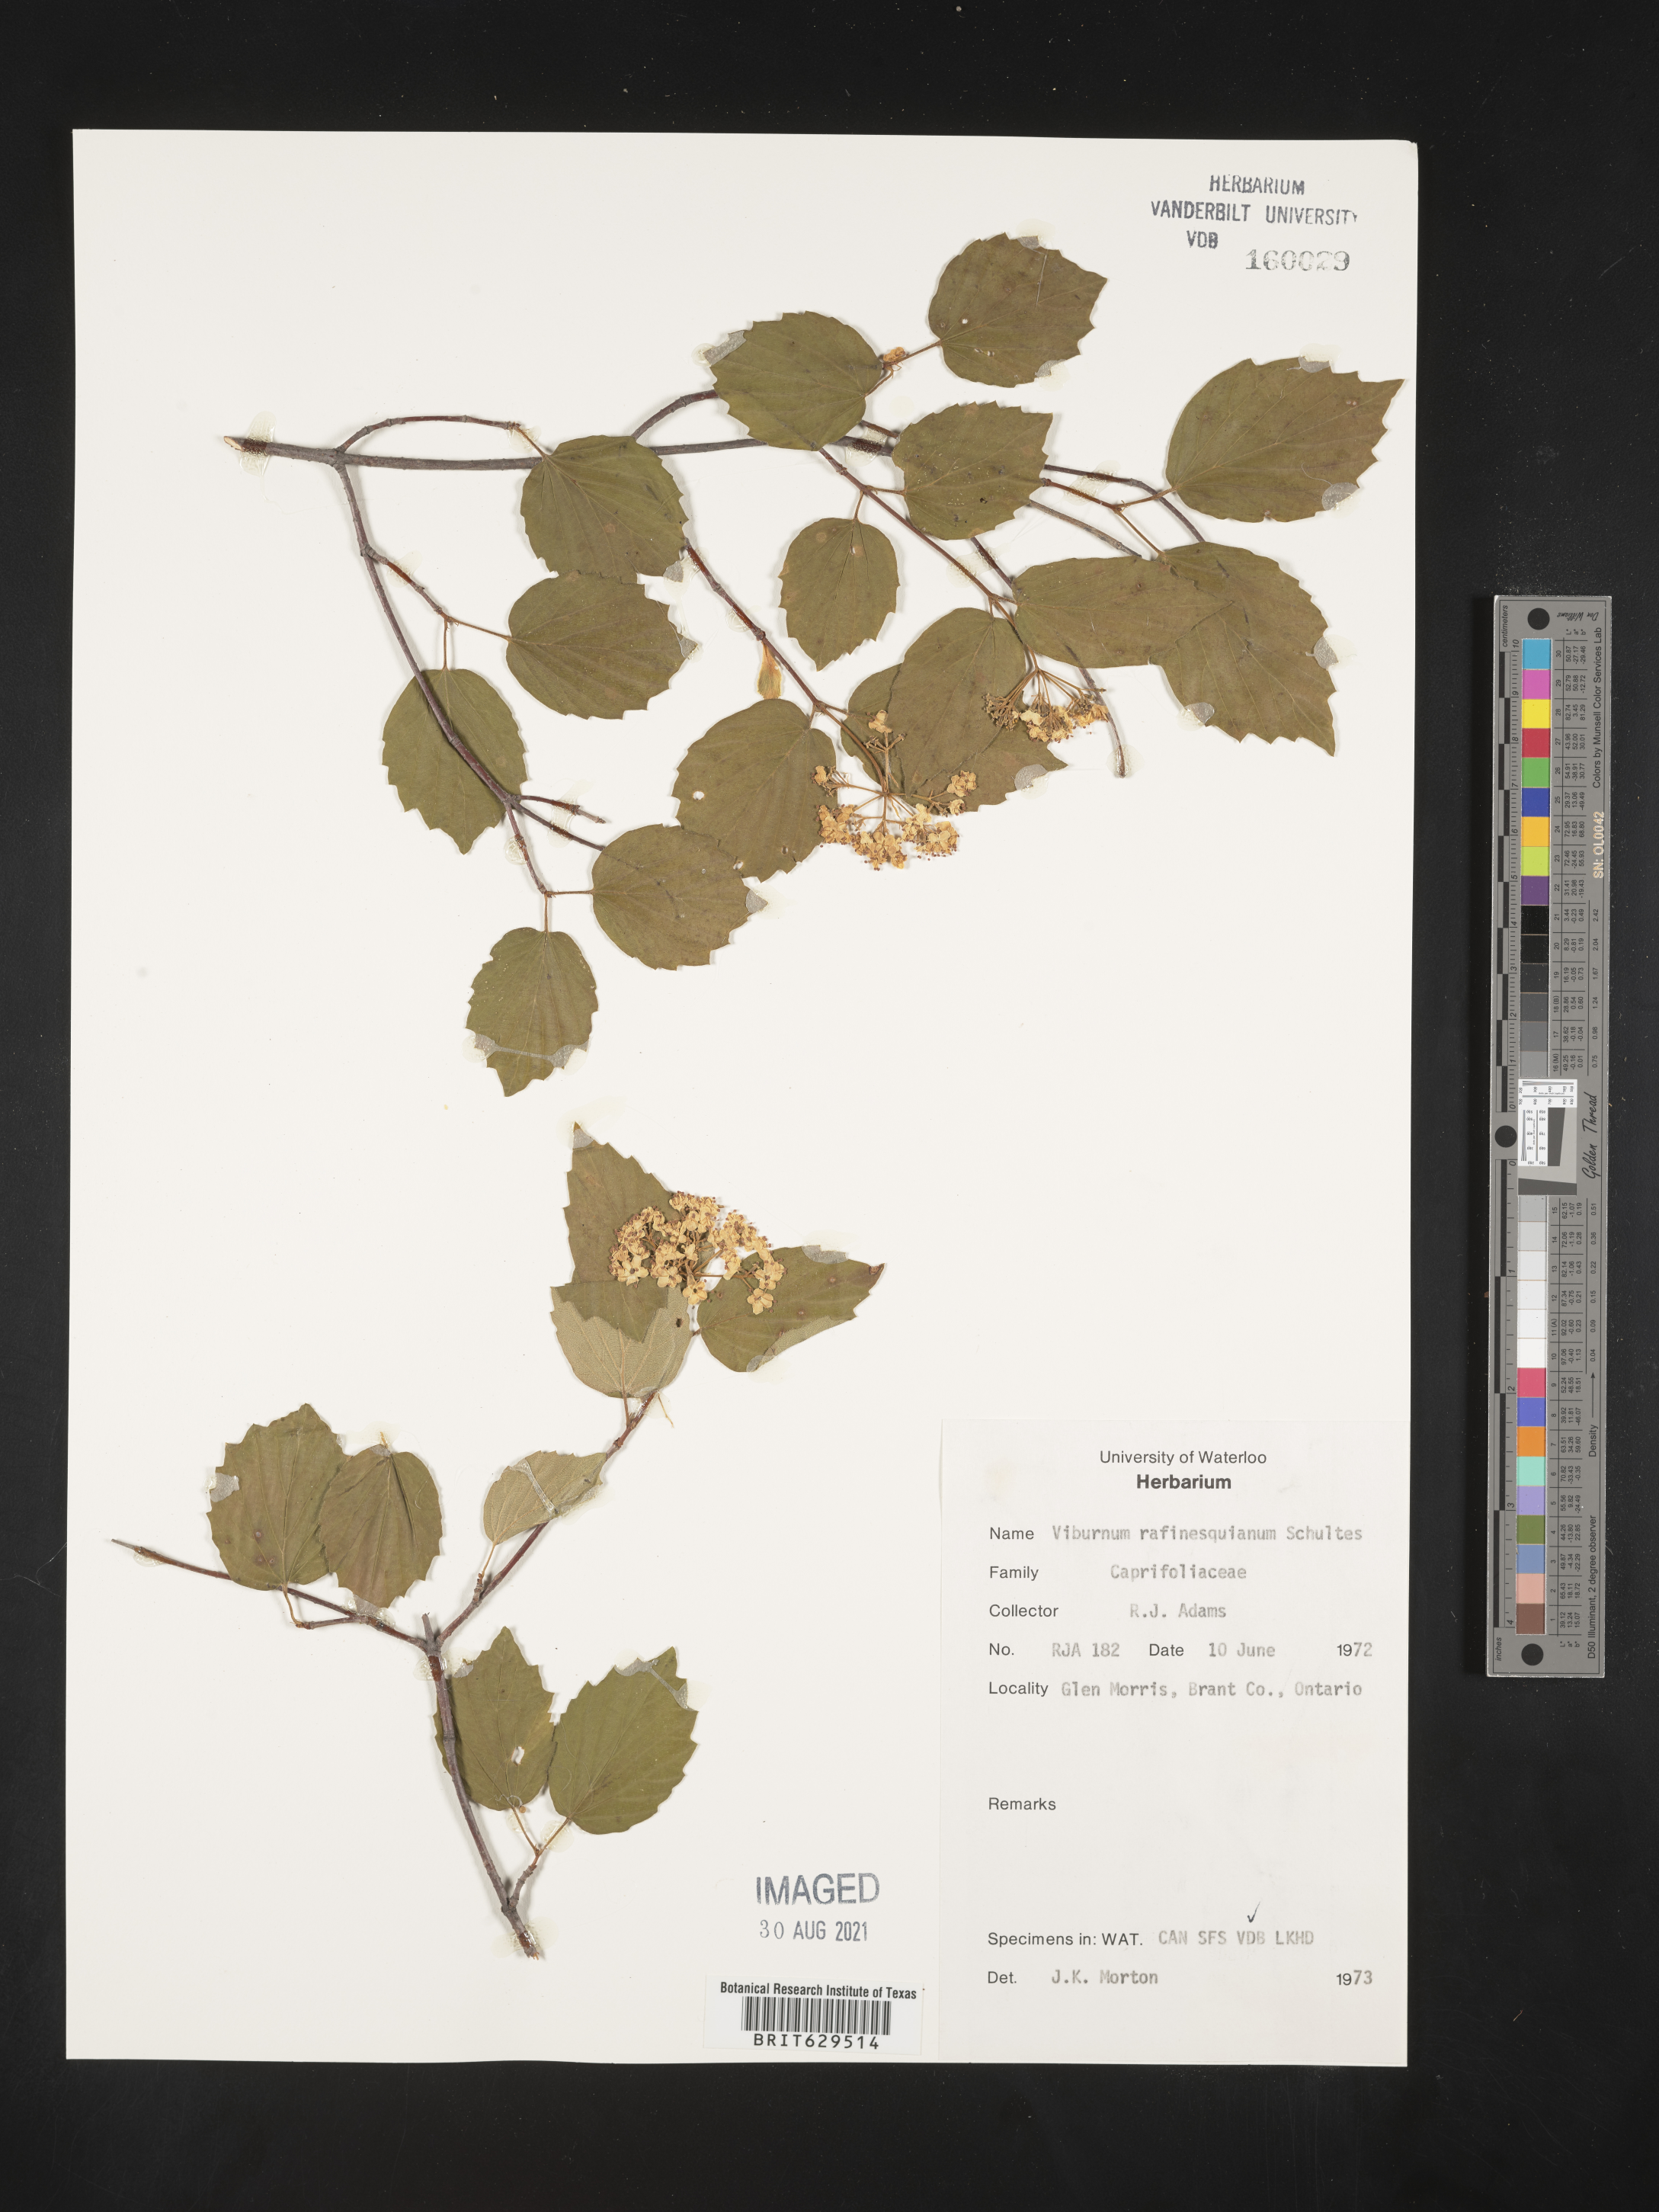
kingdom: Plantae
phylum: Tracheophyta
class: Magnoliopsida
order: Dipsacales
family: Viburnaceae
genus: Viburnum
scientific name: Viburnum rafinesqueanum
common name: Downy arrow-wood
